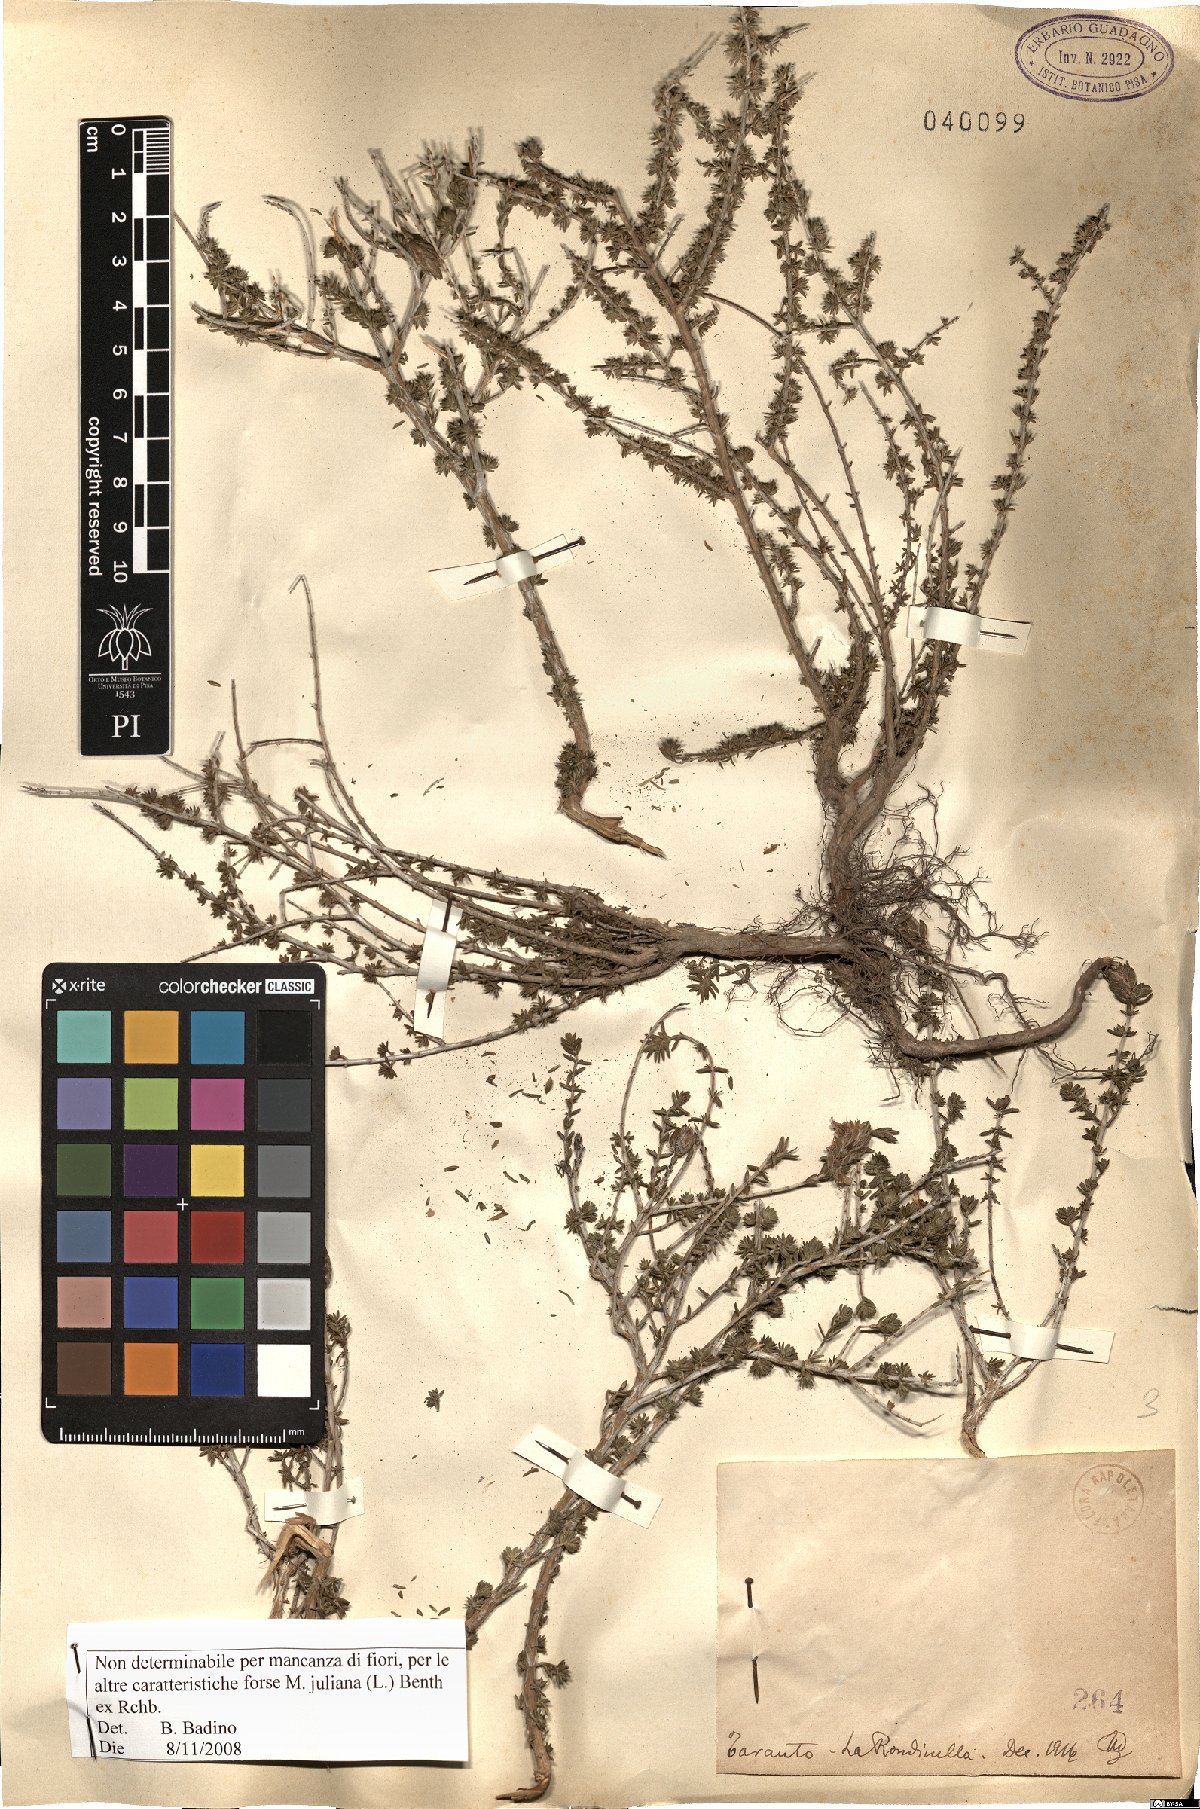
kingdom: Plantae
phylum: Tracheophyta
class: Magnoliopsida
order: Lamiales
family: Lamiaceae
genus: Micromeria
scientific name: Micromeria juliana
